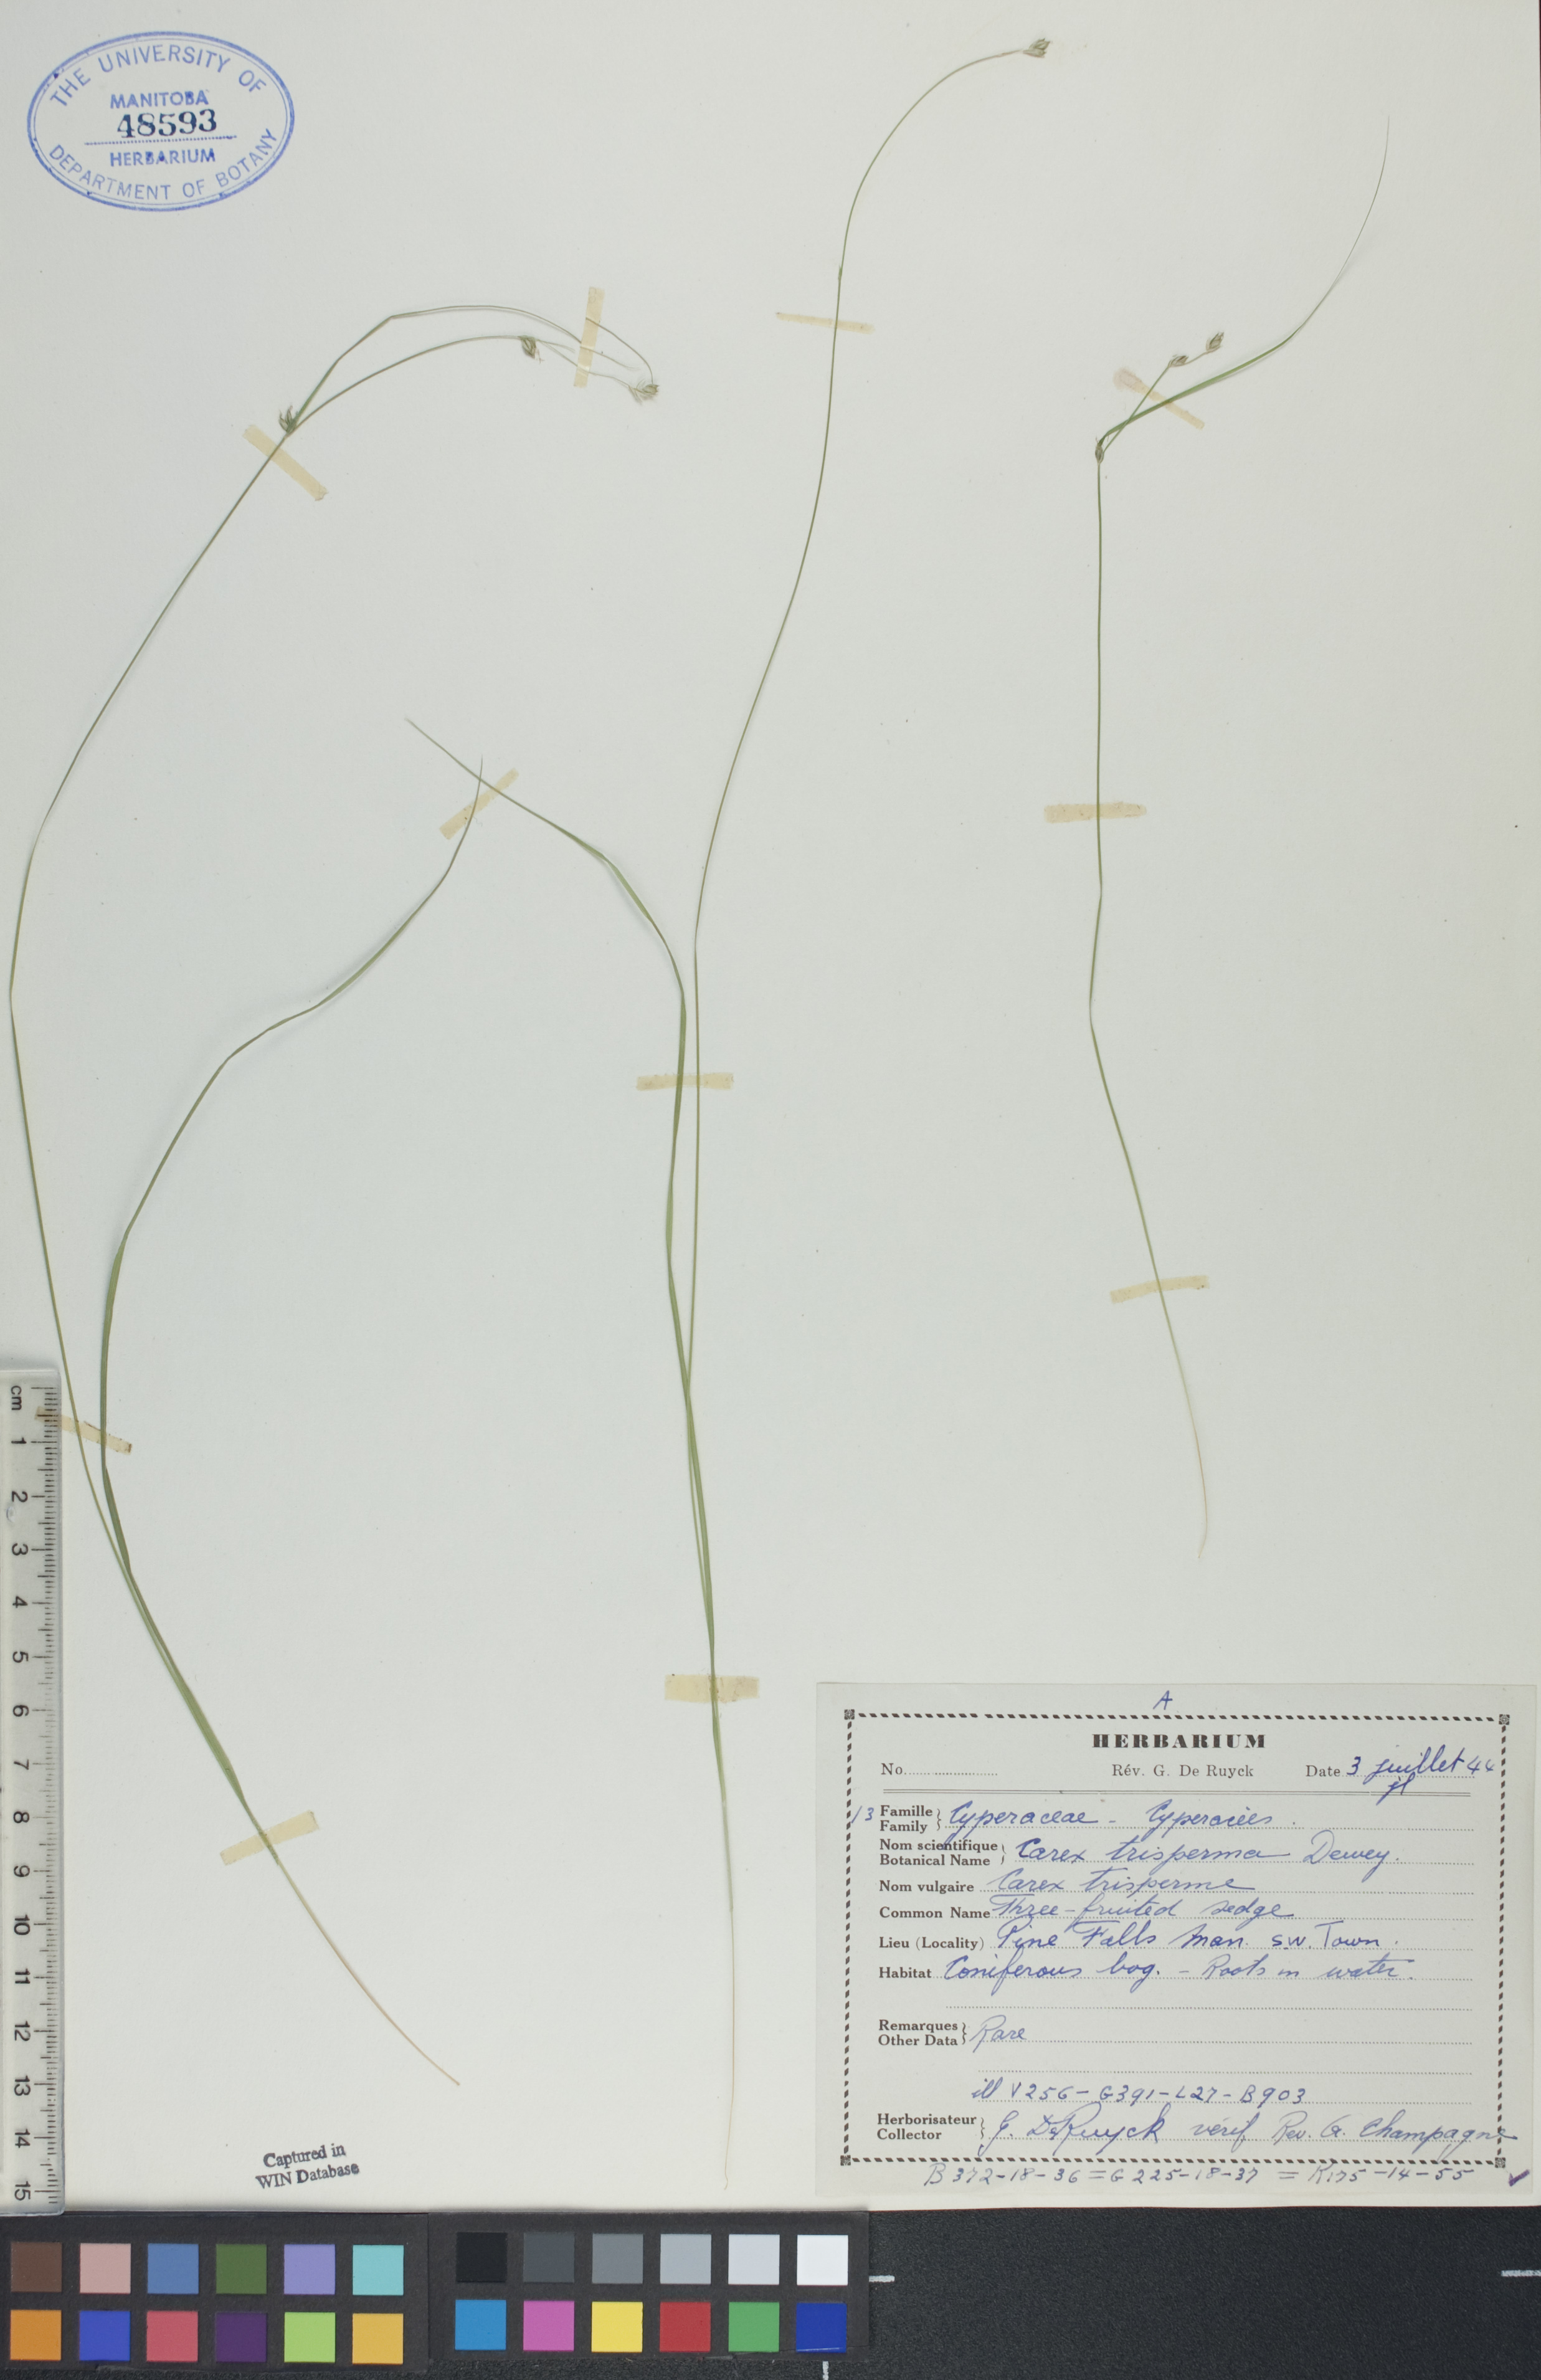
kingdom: Plantae
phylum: Tracheophyta
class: Liliopsida
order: Poales
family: Cyperaceae
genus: Carex
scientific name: Carex trisperma
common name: Three-seeded sedge
